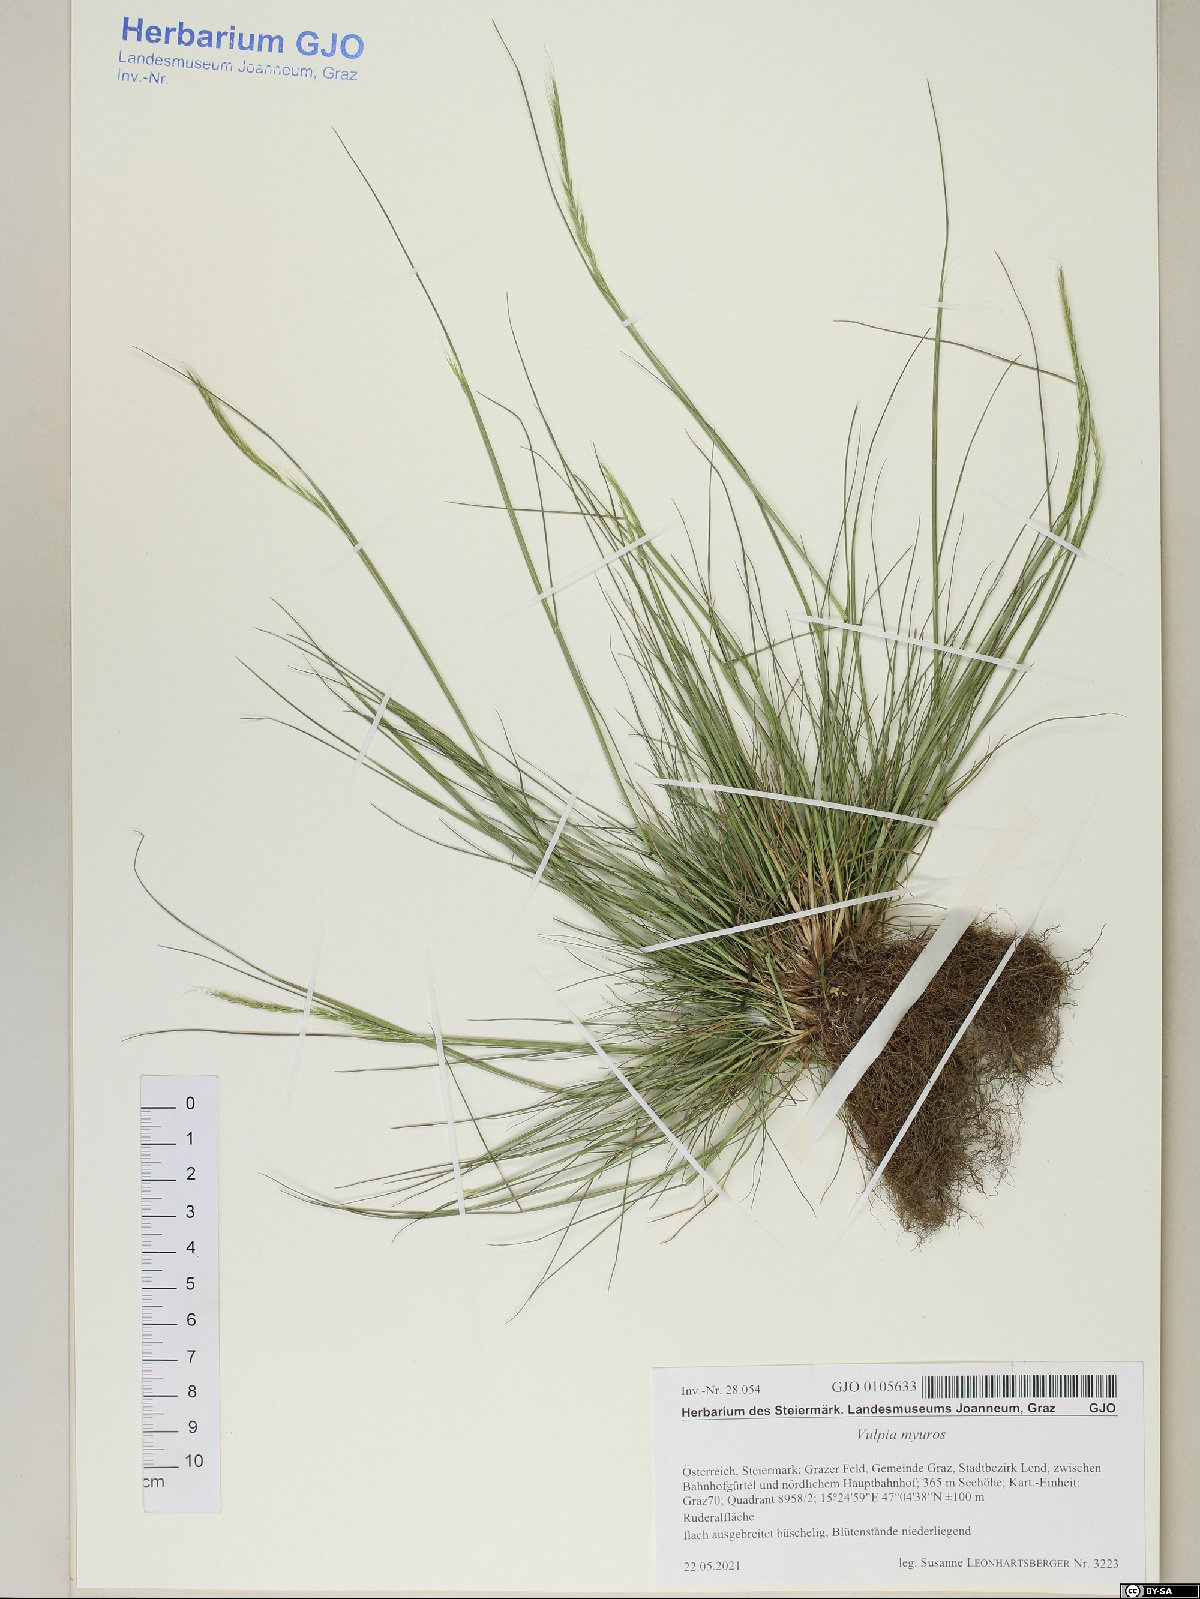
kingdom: Plantae
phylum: Tracheophyta
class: Liliopsida
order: Poales
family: Poaceae
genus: Festuca
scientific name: Festuca myuros
